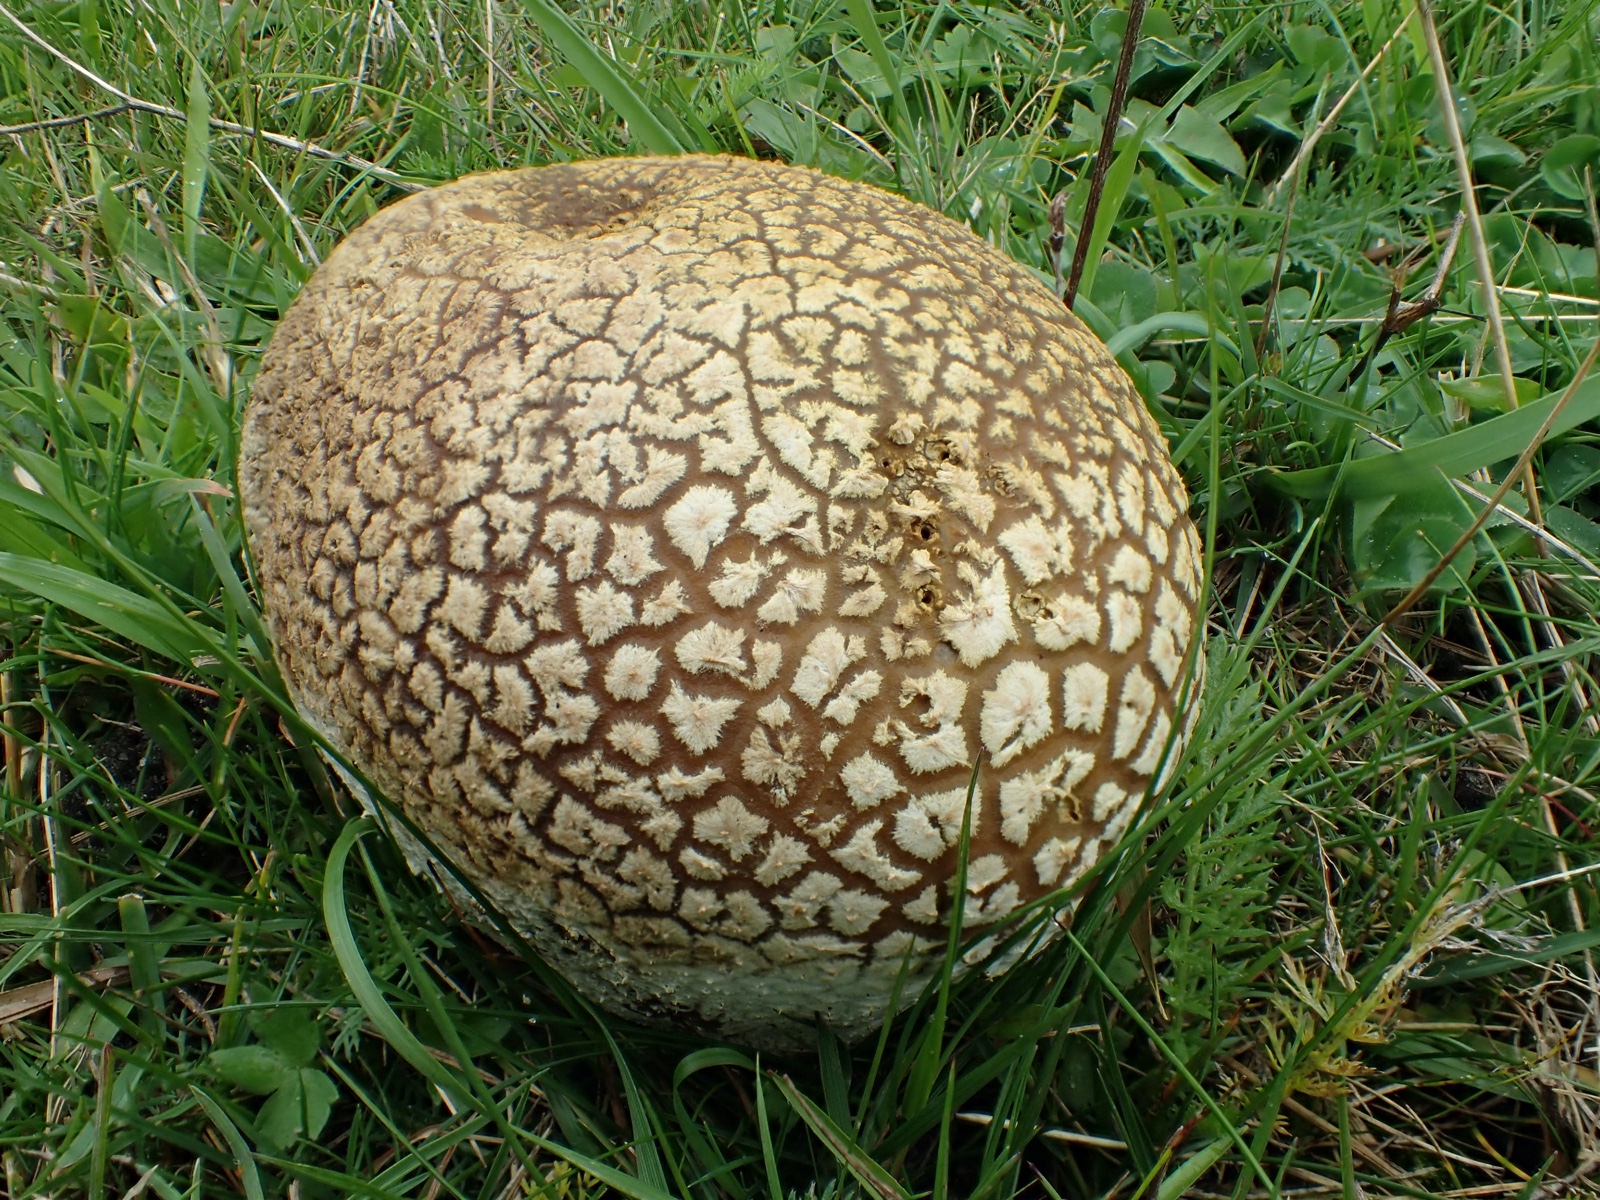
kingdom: Fungi
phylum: Basidiomycota
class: Agaricomycetes
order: Agaricales
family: Lycoperdaceae
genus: Bovistella
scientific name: Bovistella utriformis
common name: skællet støvbold
